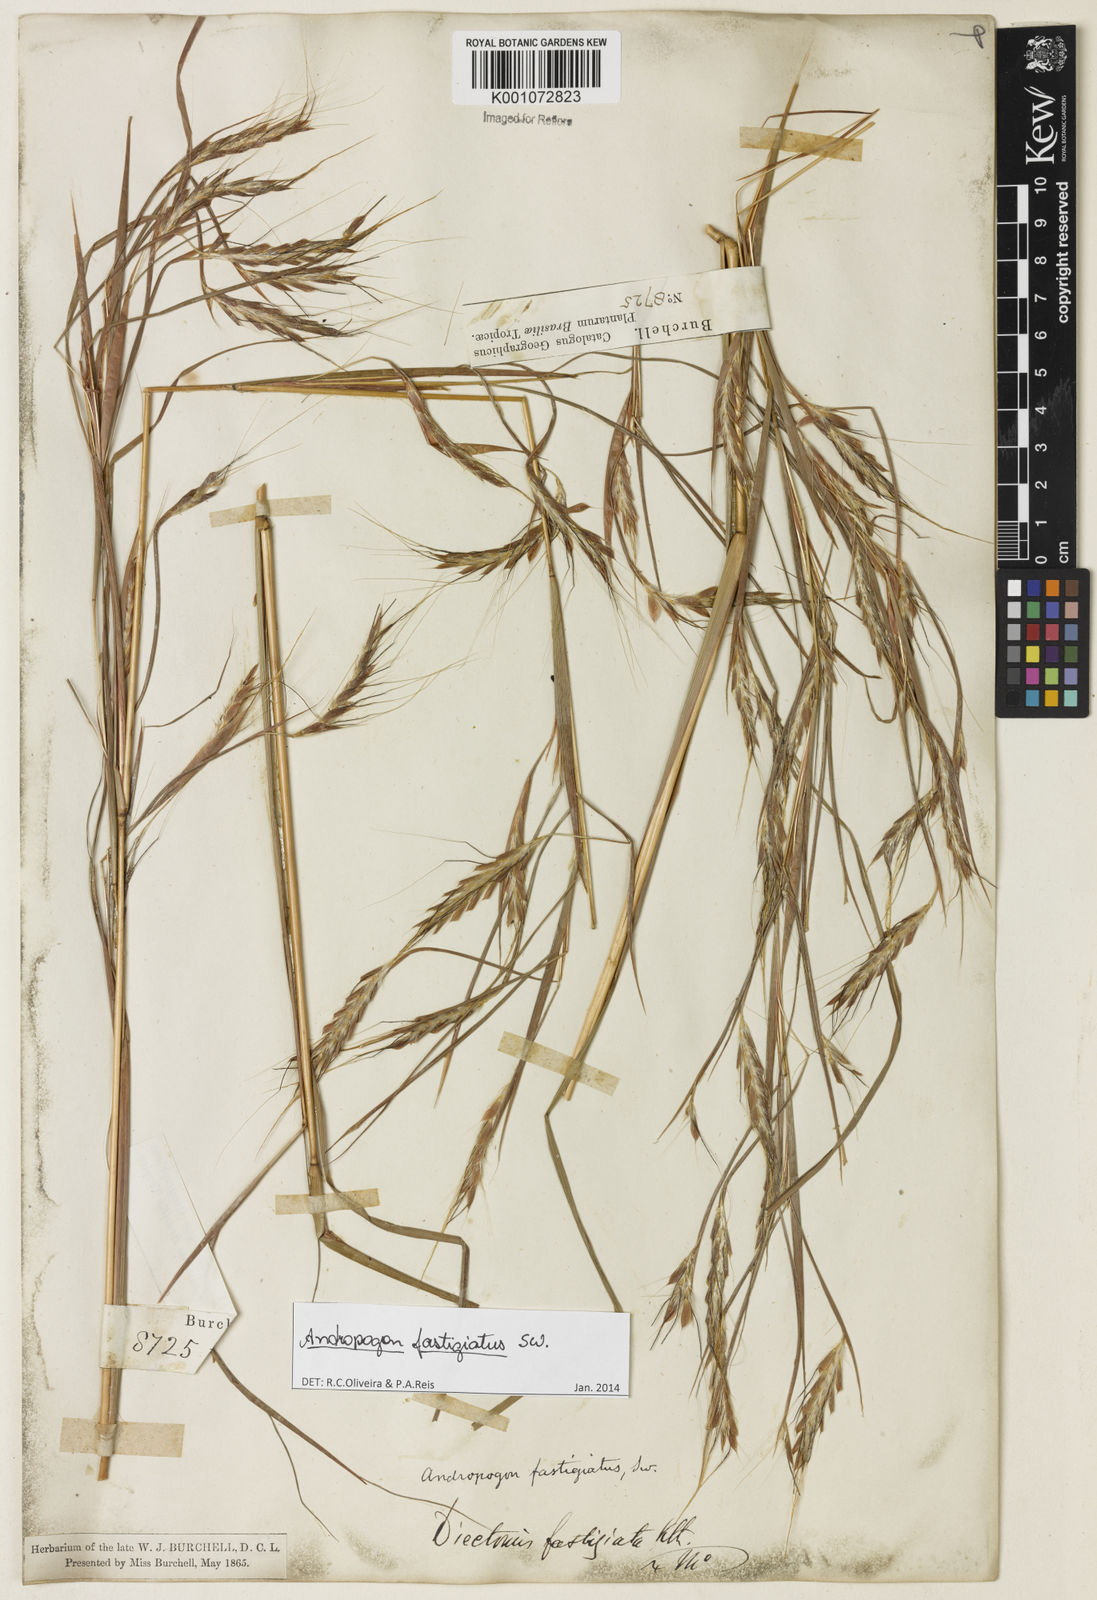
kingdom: Plantae
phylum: Tracheophyta
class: Liliopsida
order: Poales
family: Poaceae
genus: Diectomis
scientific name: Diectomis fastigiata
